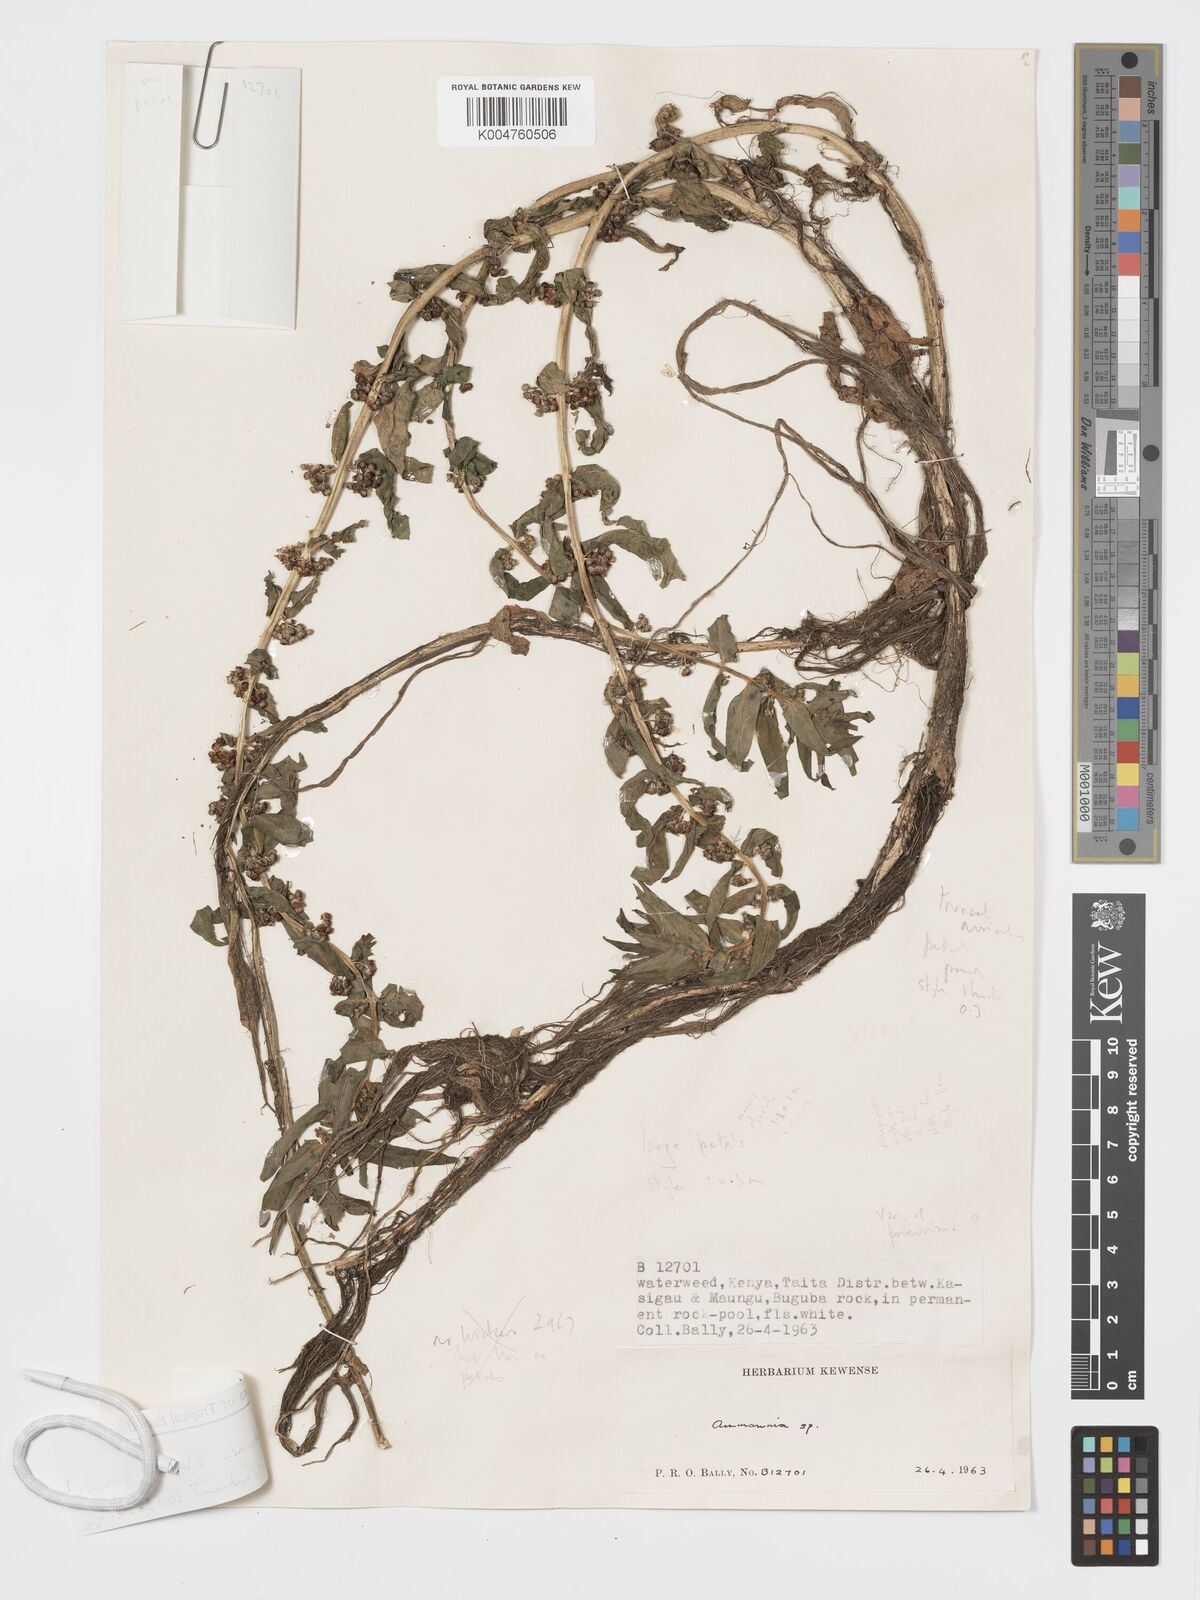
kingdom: Plantae
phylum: Tracheophyta
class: Magnoliopsida
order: Myrtales
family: Lythraceae
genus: Ammannia
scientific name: Ammannia elata
